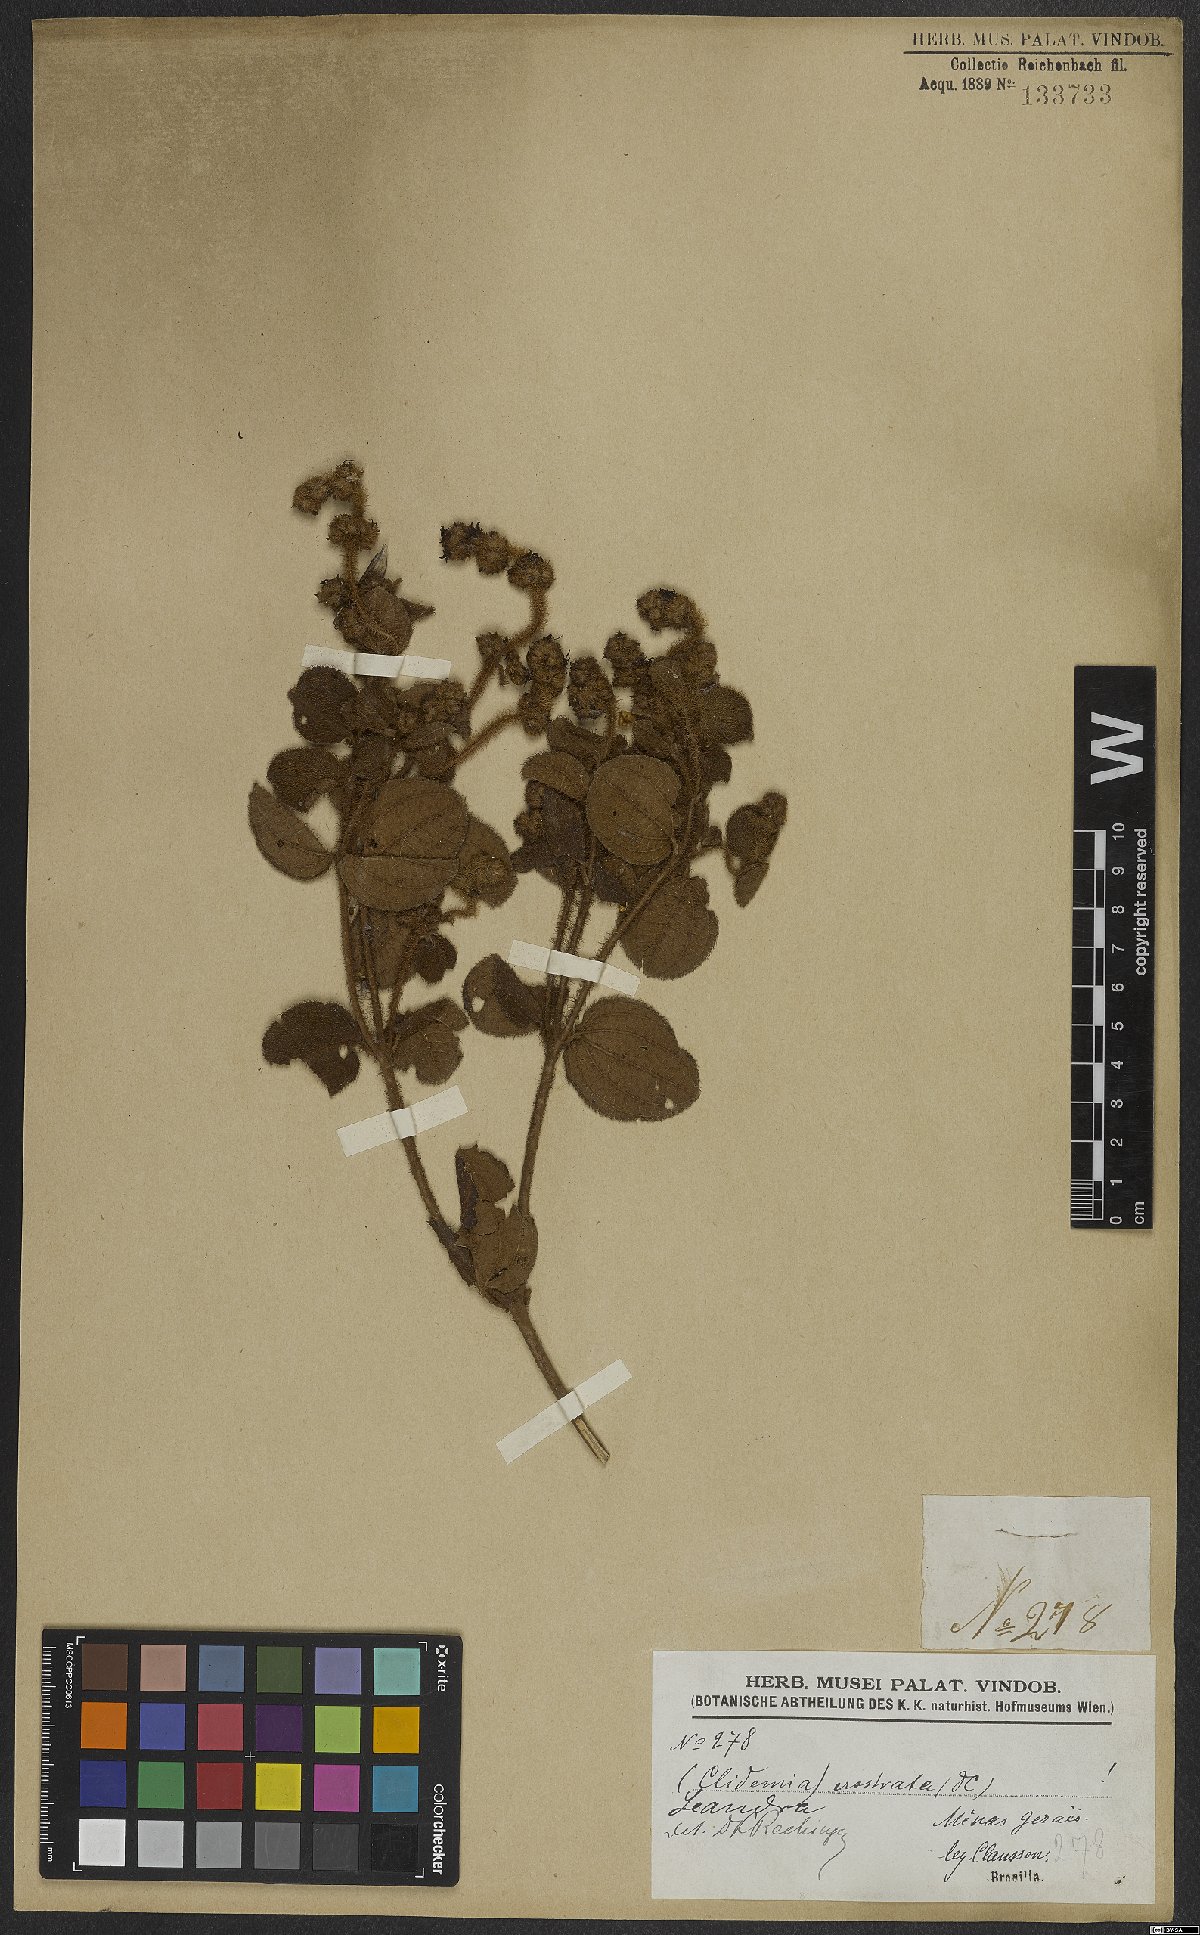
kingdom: Plantae
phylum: Tracheophyta
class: Magnoliopsida
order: Myrtales
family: Melastomataceae
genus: Miconia
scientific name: Miconia erostrata
